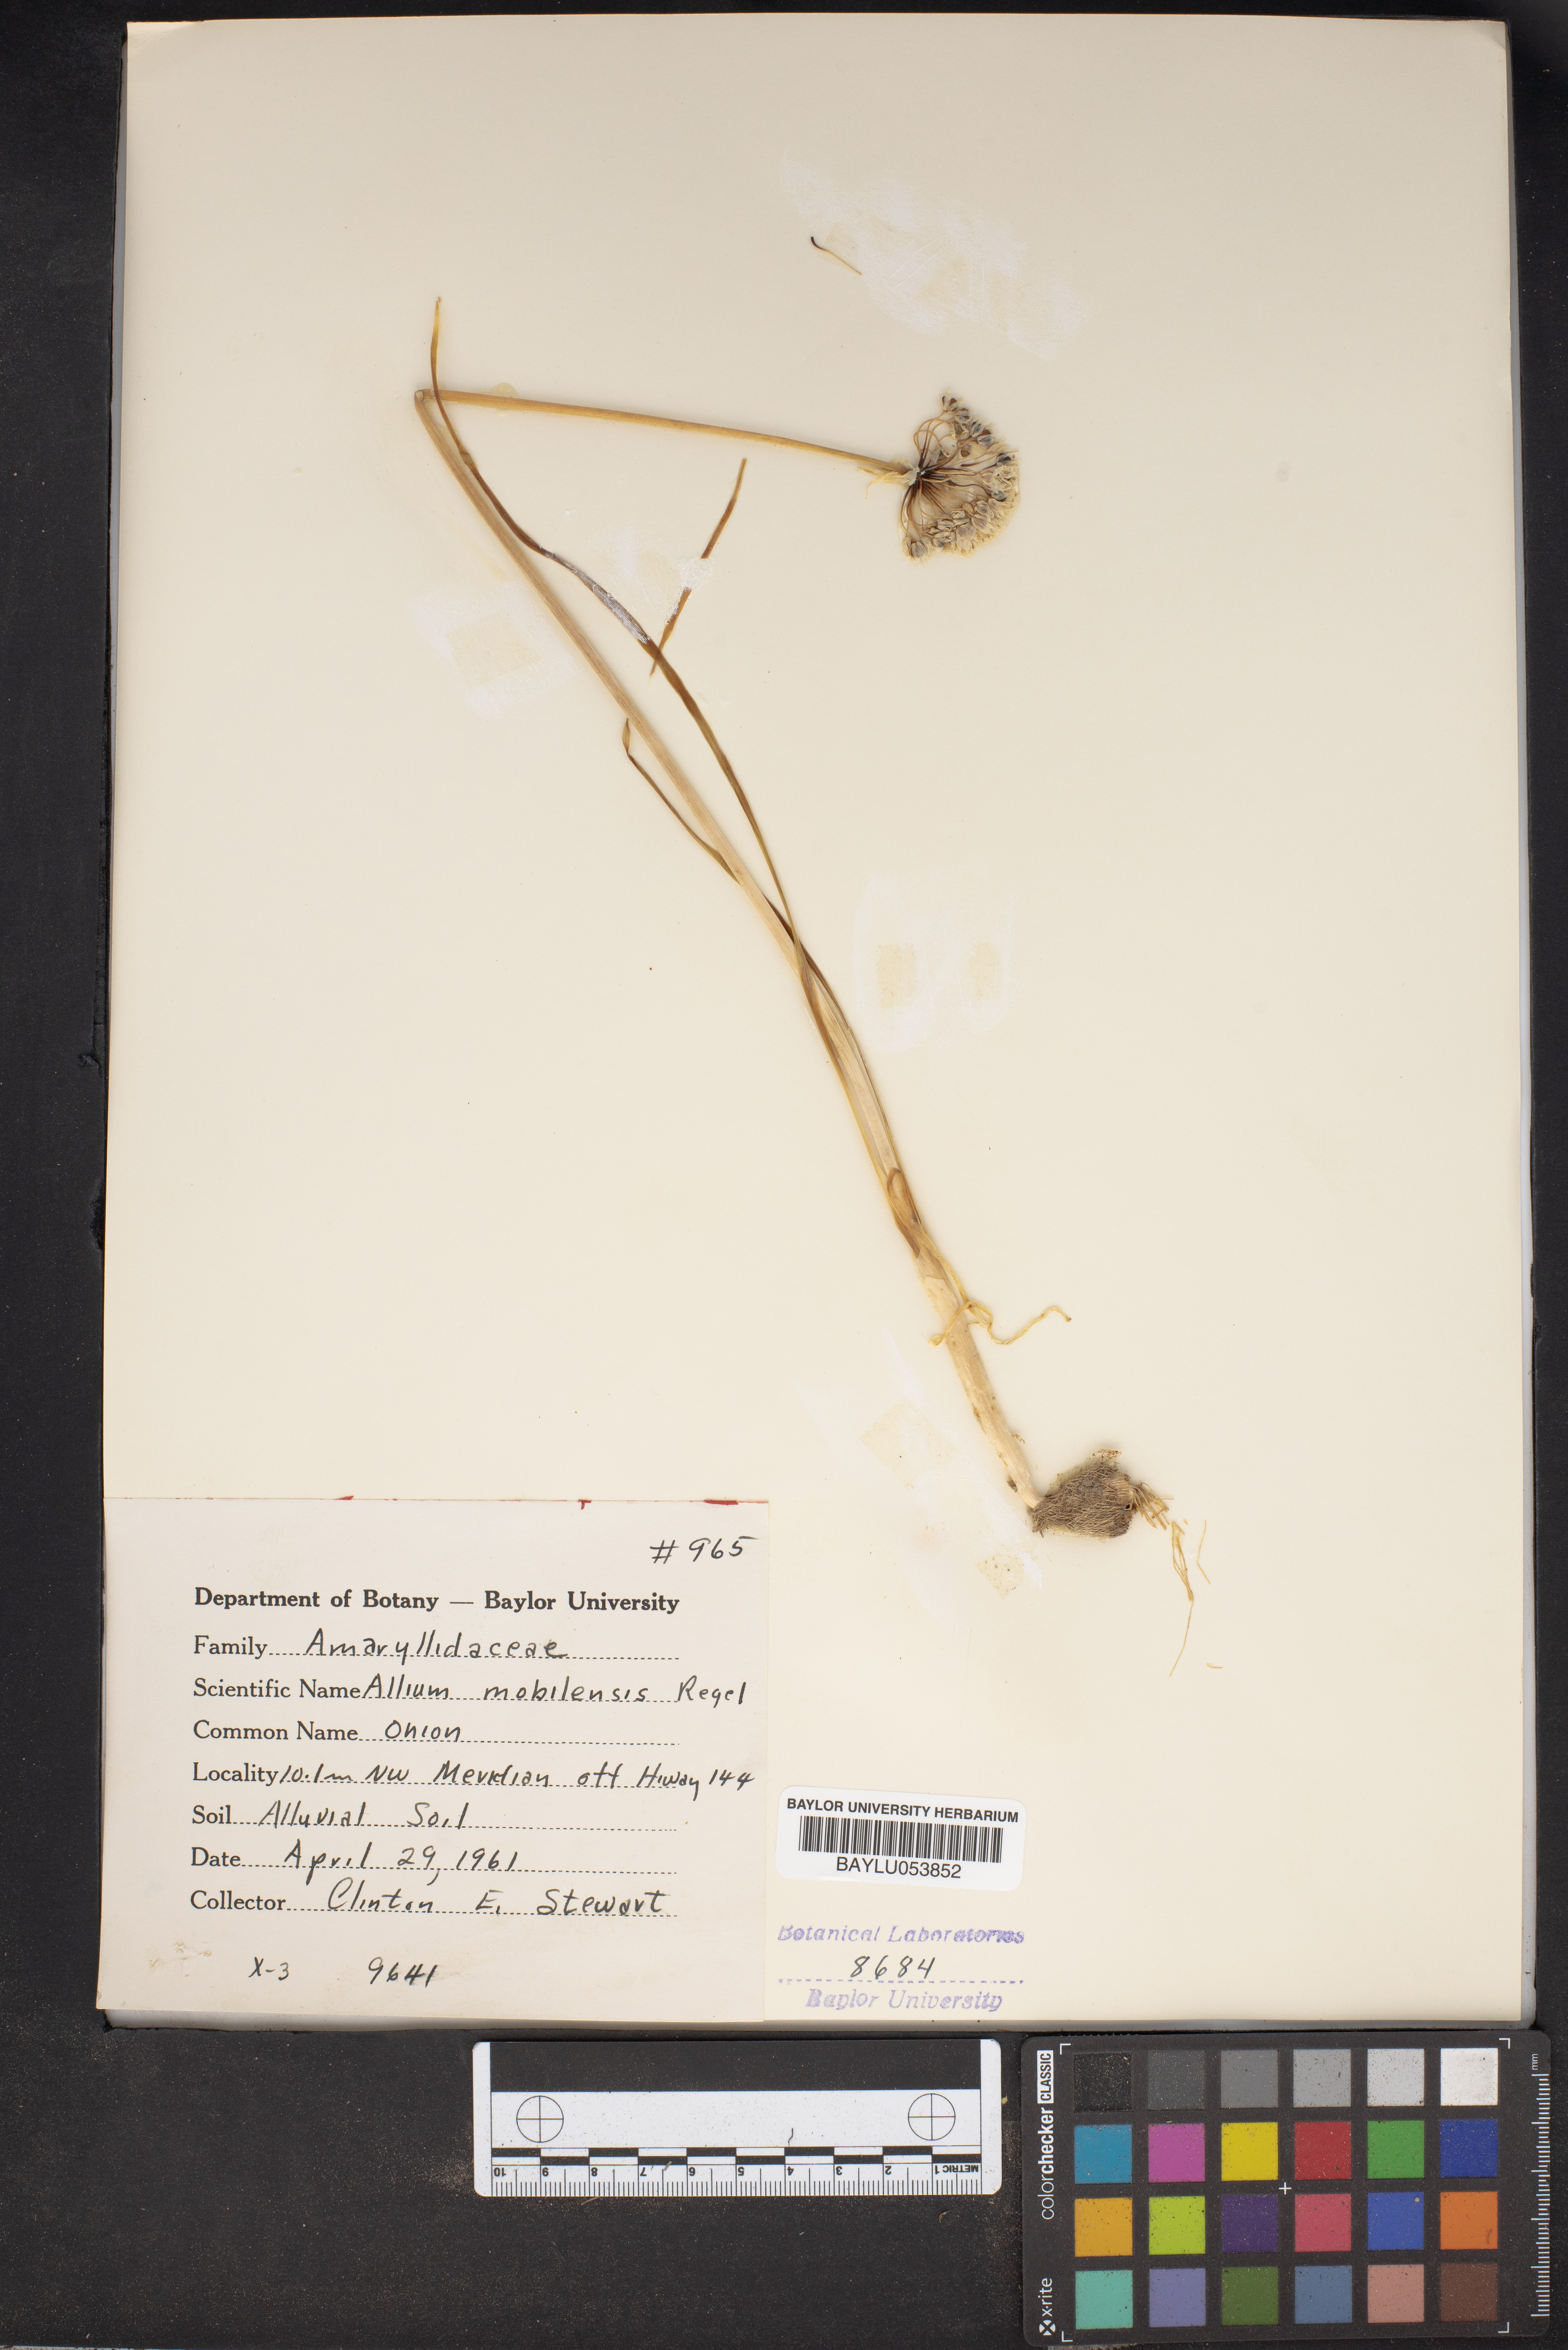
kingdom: Plantae
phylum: Tracheophyta
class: Liliopsida
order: Asparagales
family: Amaryllidaceae
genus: Allium
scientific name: Allium canadense
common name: Meadow garlic
